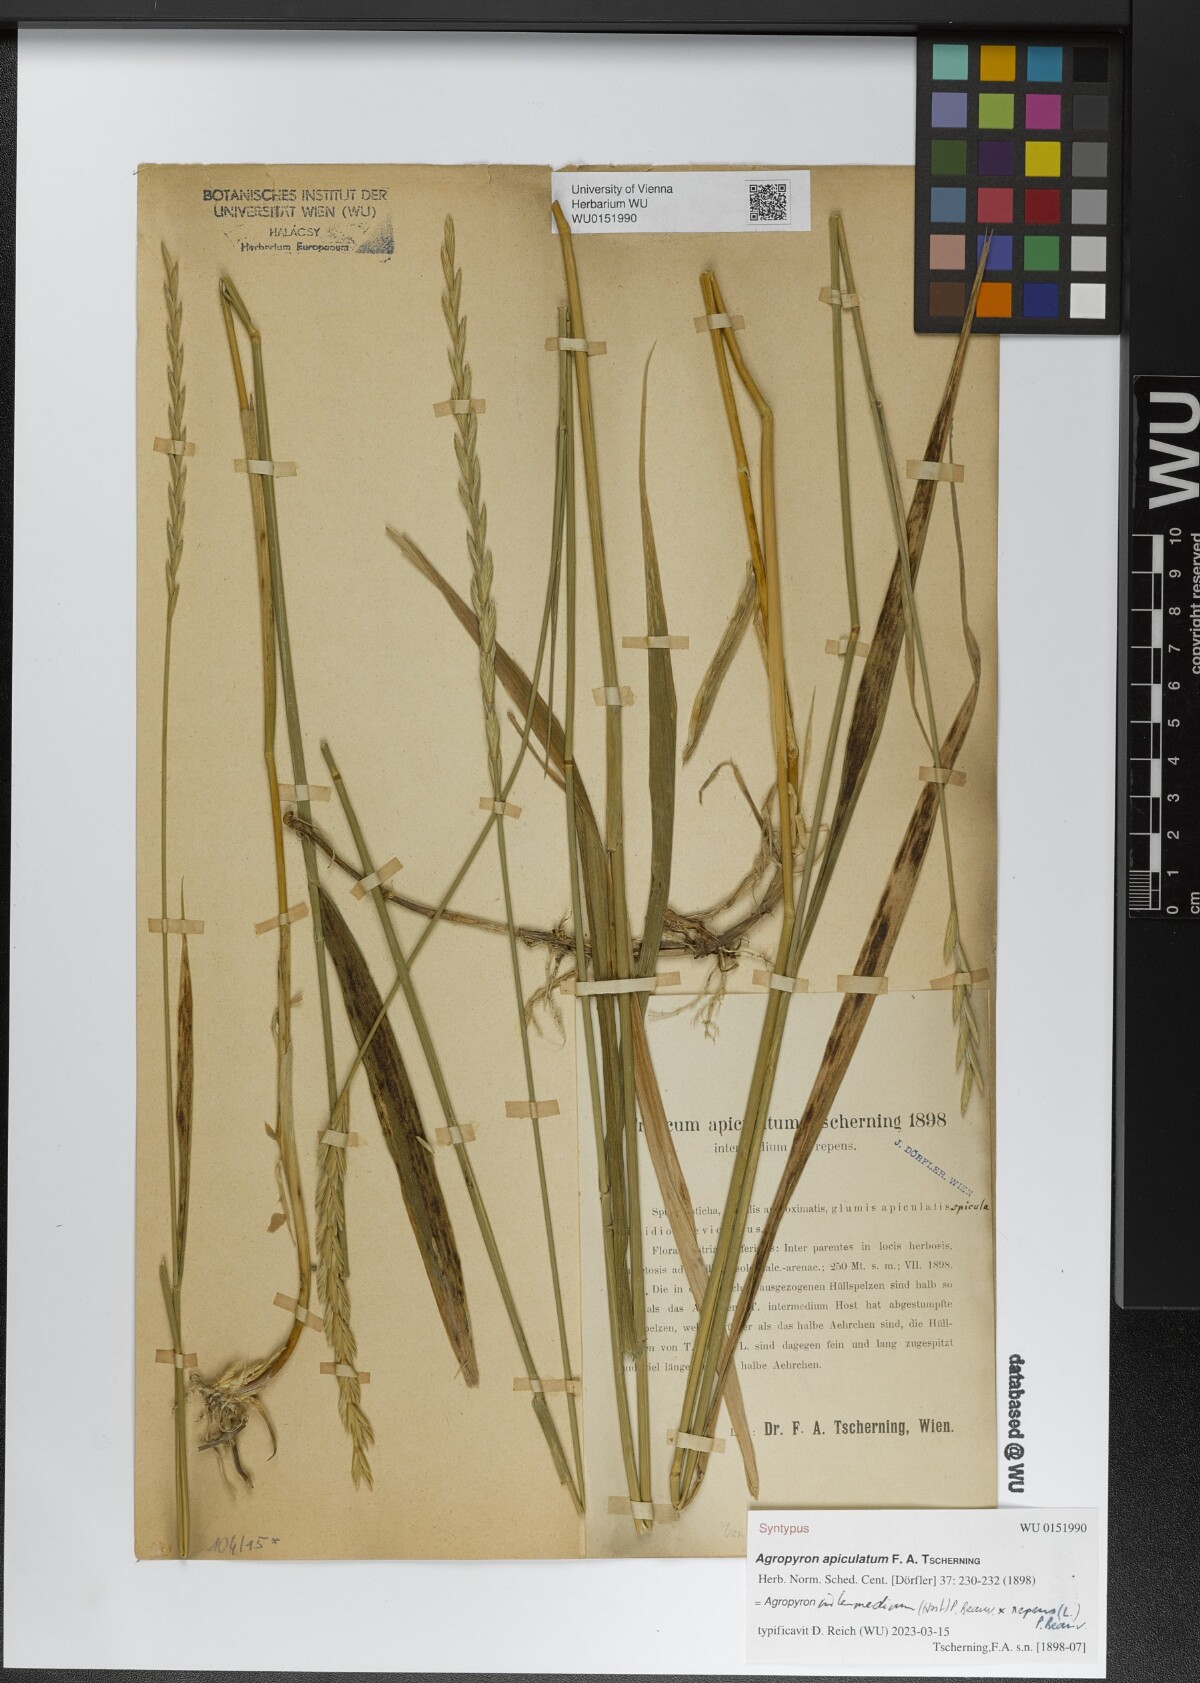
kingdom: Plantae
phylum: Tracheophyta
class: Liliopsida
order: Poales
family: Poaceae
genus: Elymus
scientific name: Elymus apiculatus
